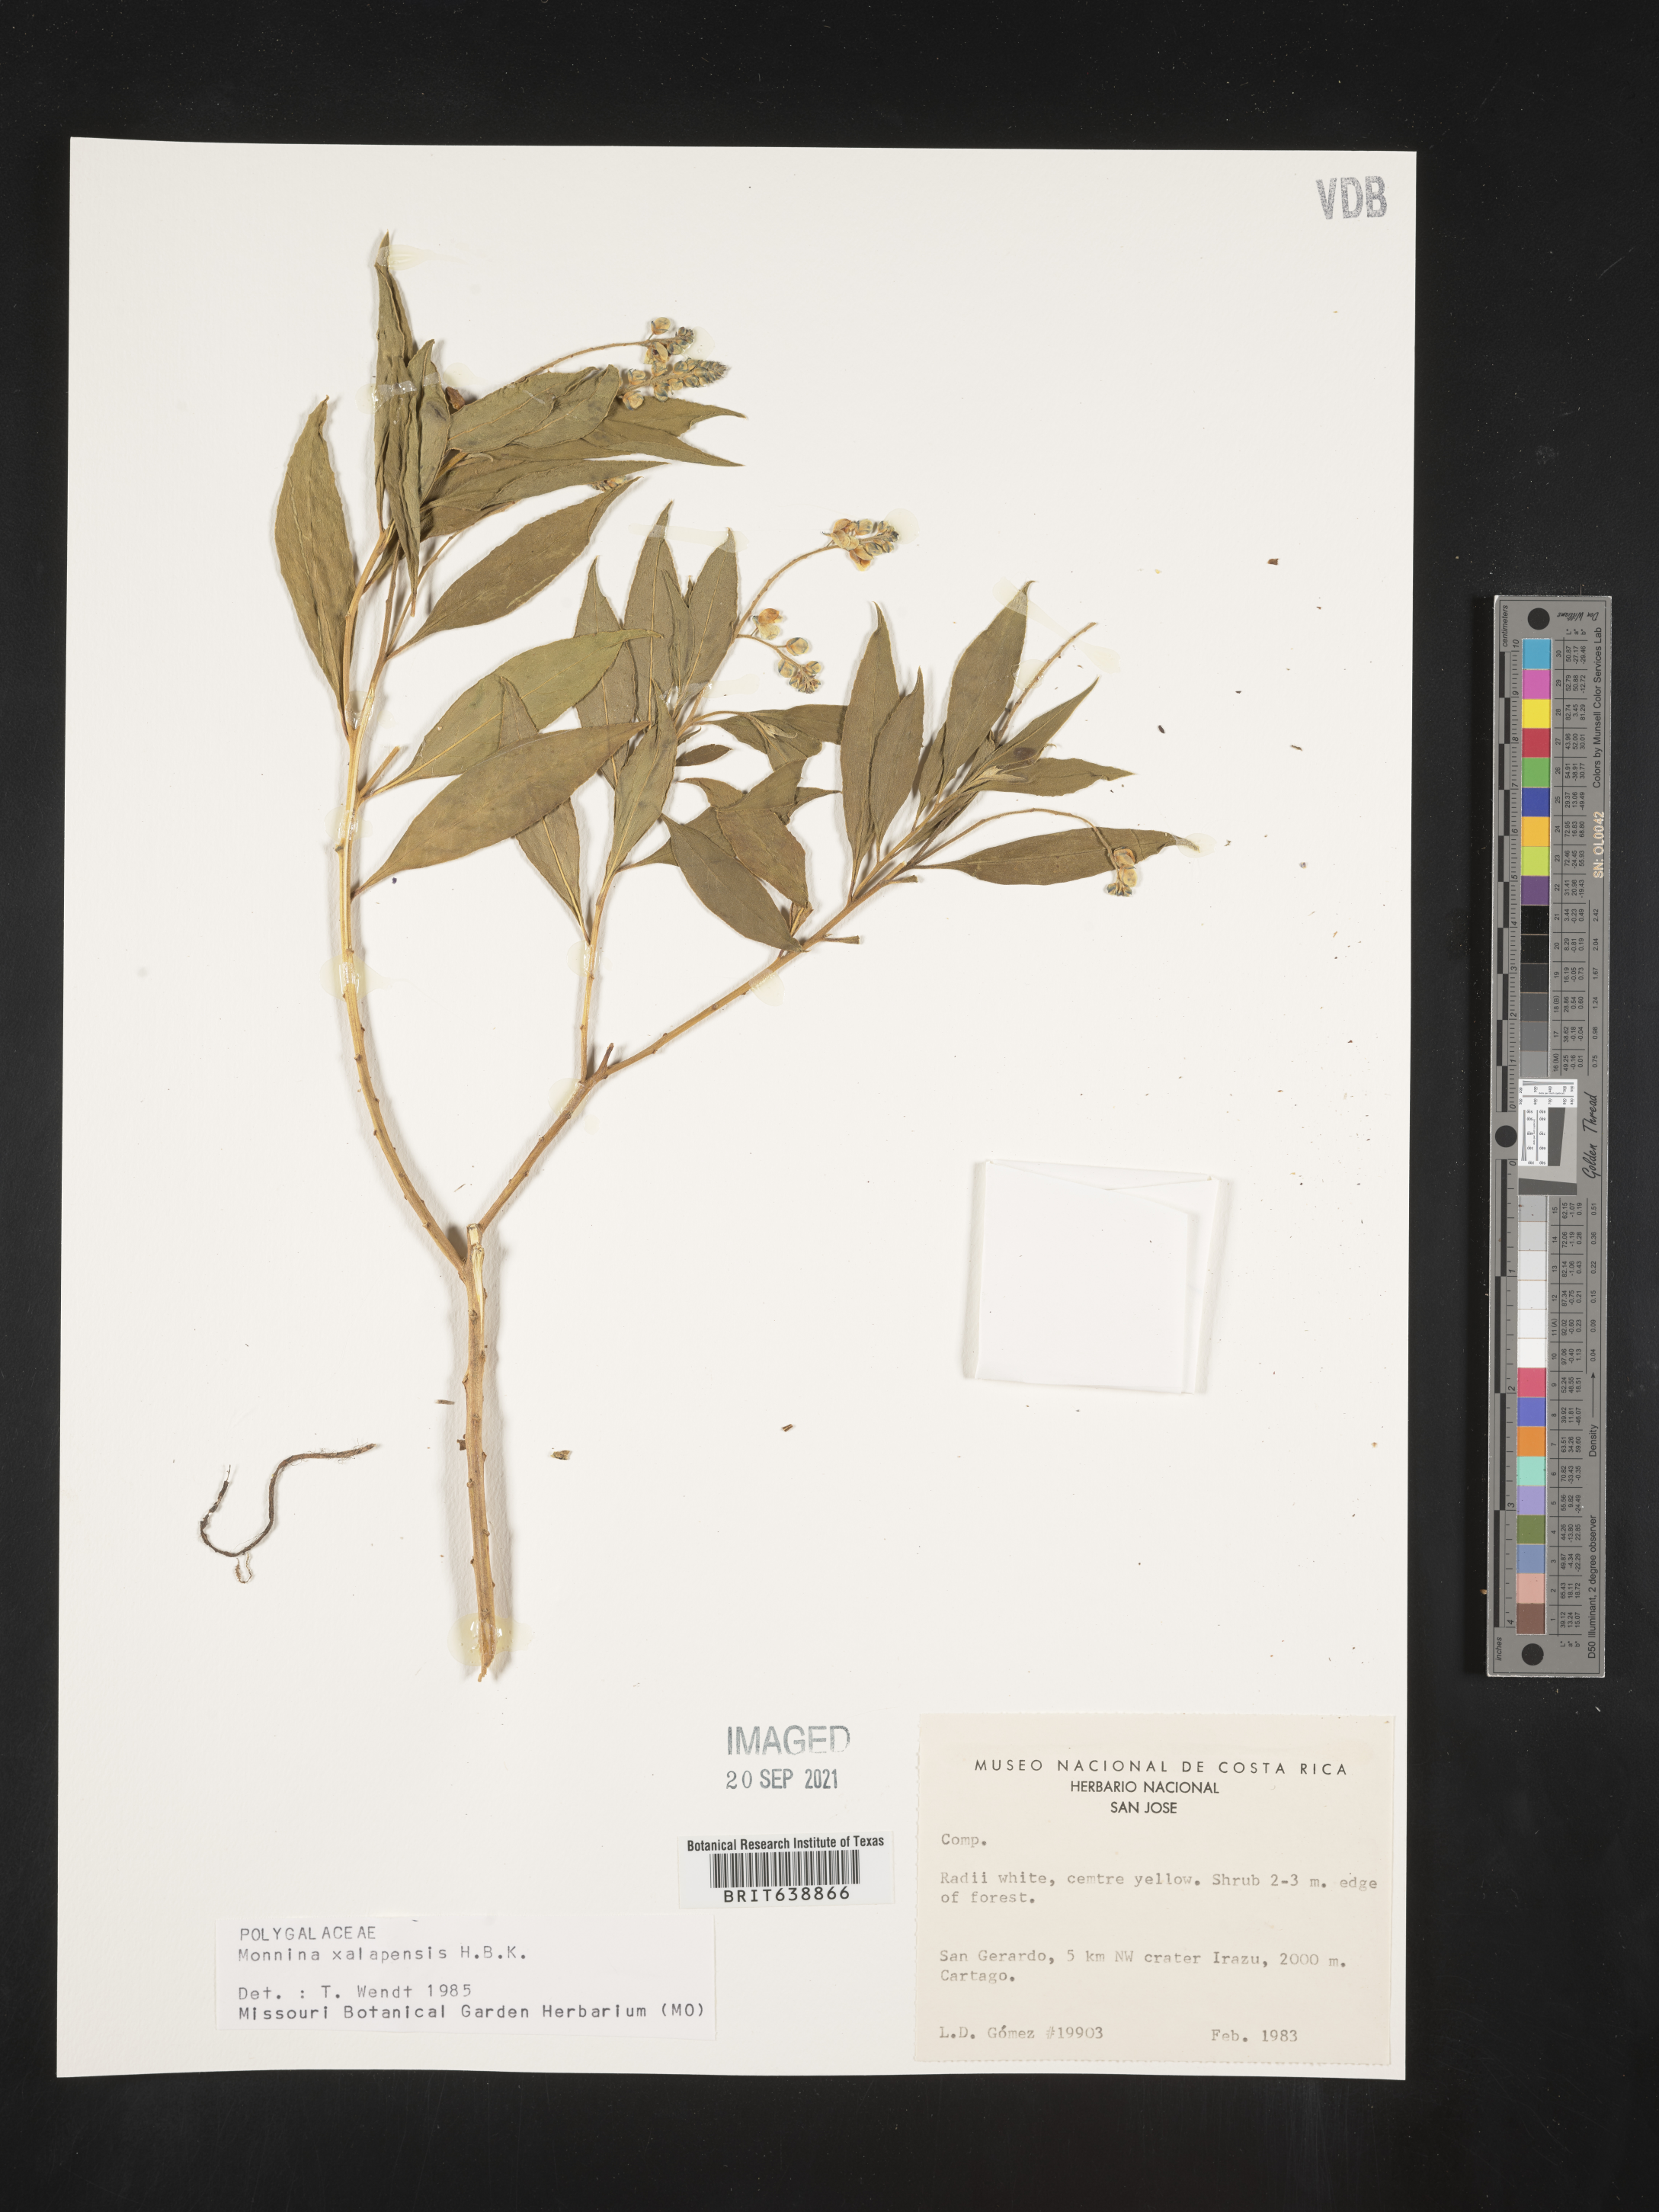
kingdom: Plantae
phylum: Tracheophyta
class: Magnoliopsida
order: Fabales
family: Polygalaceae
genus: Monnina
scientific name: Monnina
